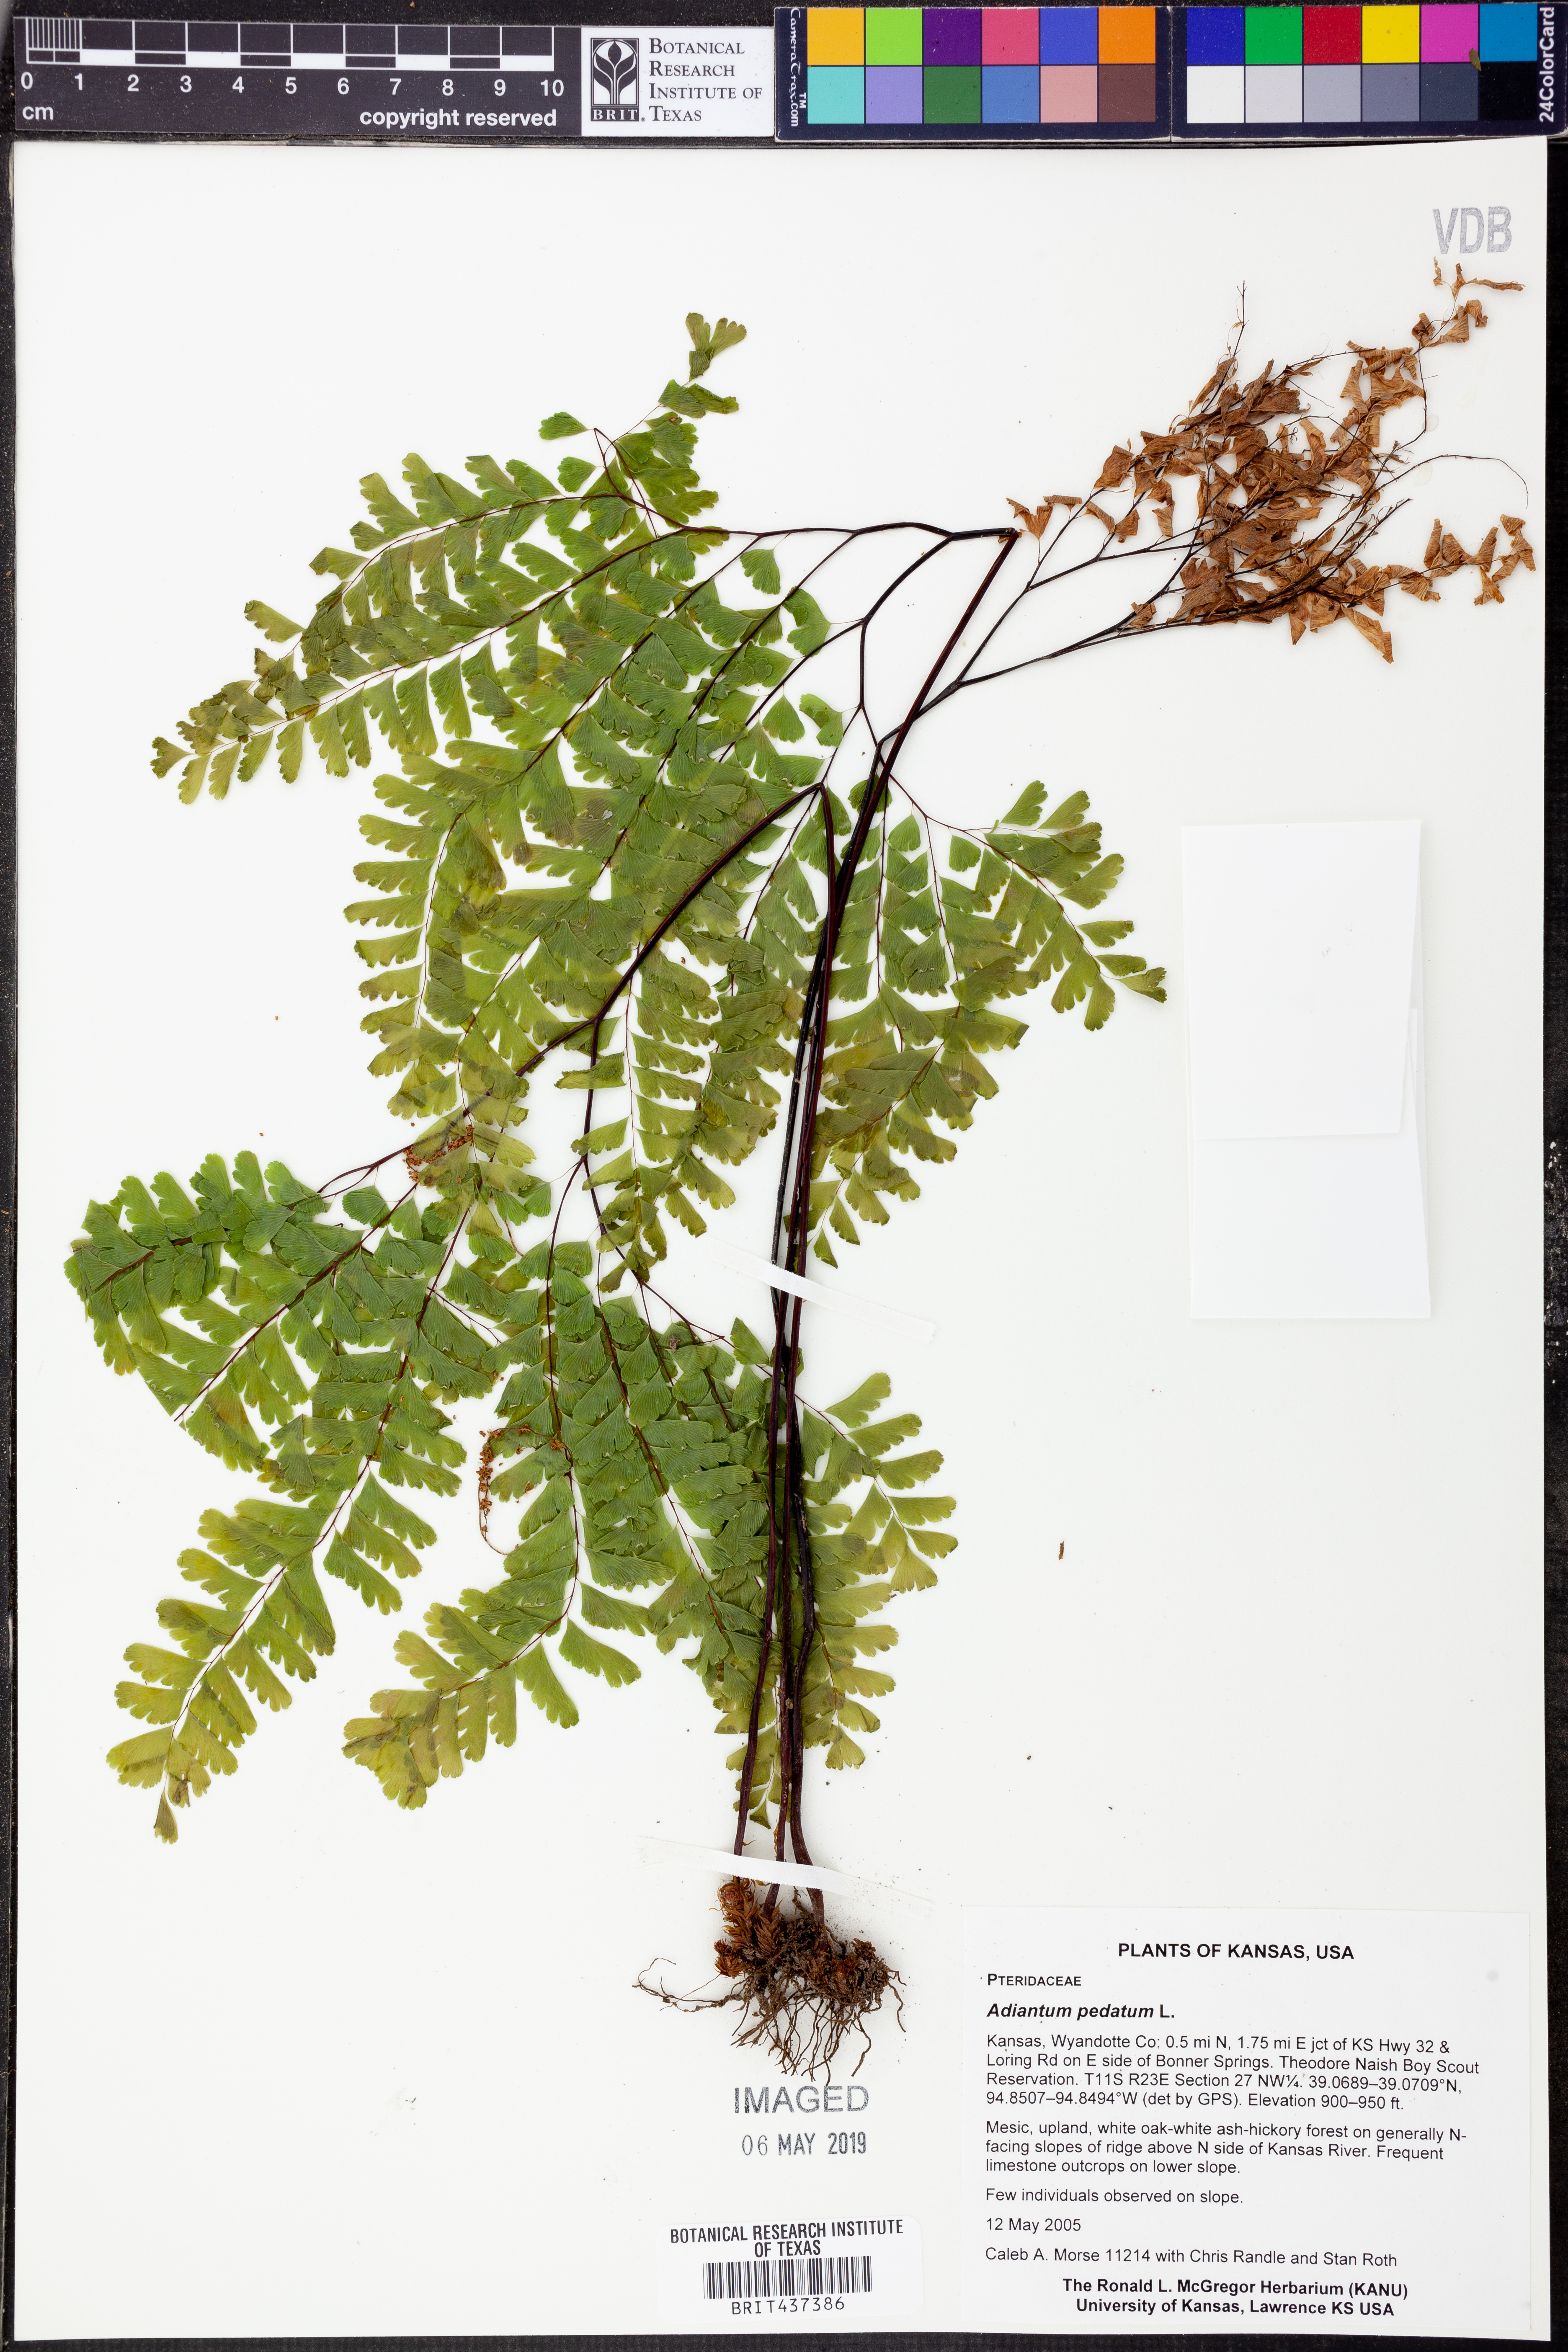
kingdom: Plantae
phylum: Tracheophyta
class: Polypodiopsida
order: Polypodiales
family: Pteridaceae
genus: Adiantum
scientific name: Adiantum pedatum
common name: Five-finger fern
